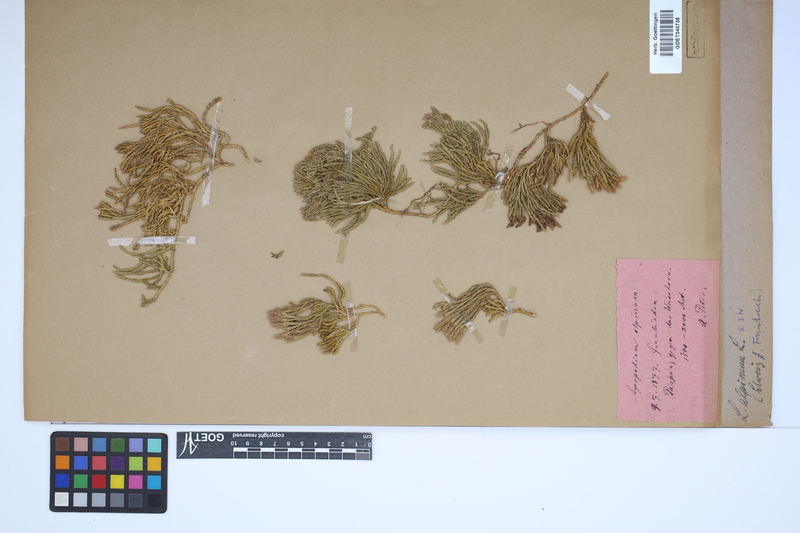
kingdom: Plantae
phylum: Tracheophyta
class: Lycopodiopsida
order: Lycopodiales
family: Lycopodiaceae
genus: Diphasiastrum
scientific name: Diphasiastrum alpinum
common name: Alpine clubmoss
